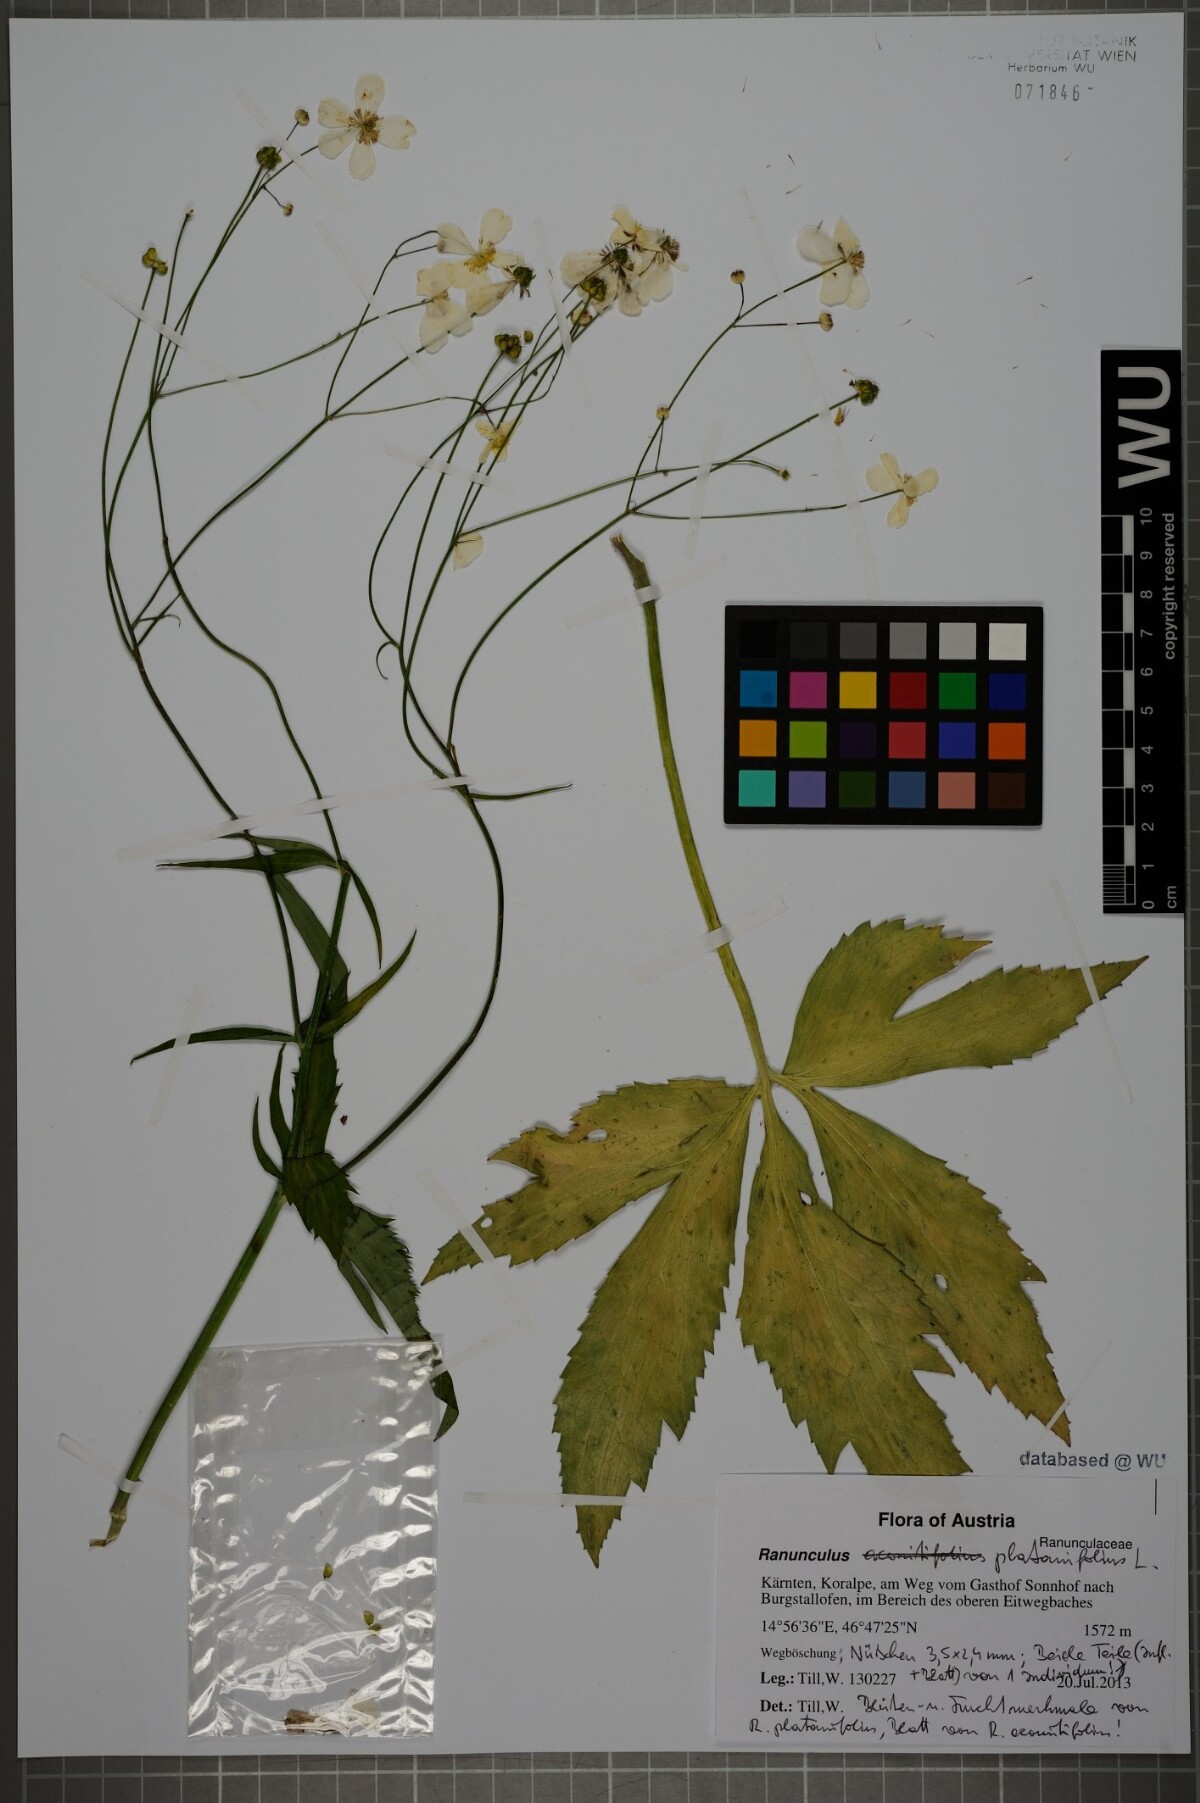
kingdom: Plantae
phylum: Tracheophyta
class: Magnoliopsida
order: Ranunculales
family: Ranunculaceae
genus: Ranunculus
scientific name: Ranunculus platanifolius
